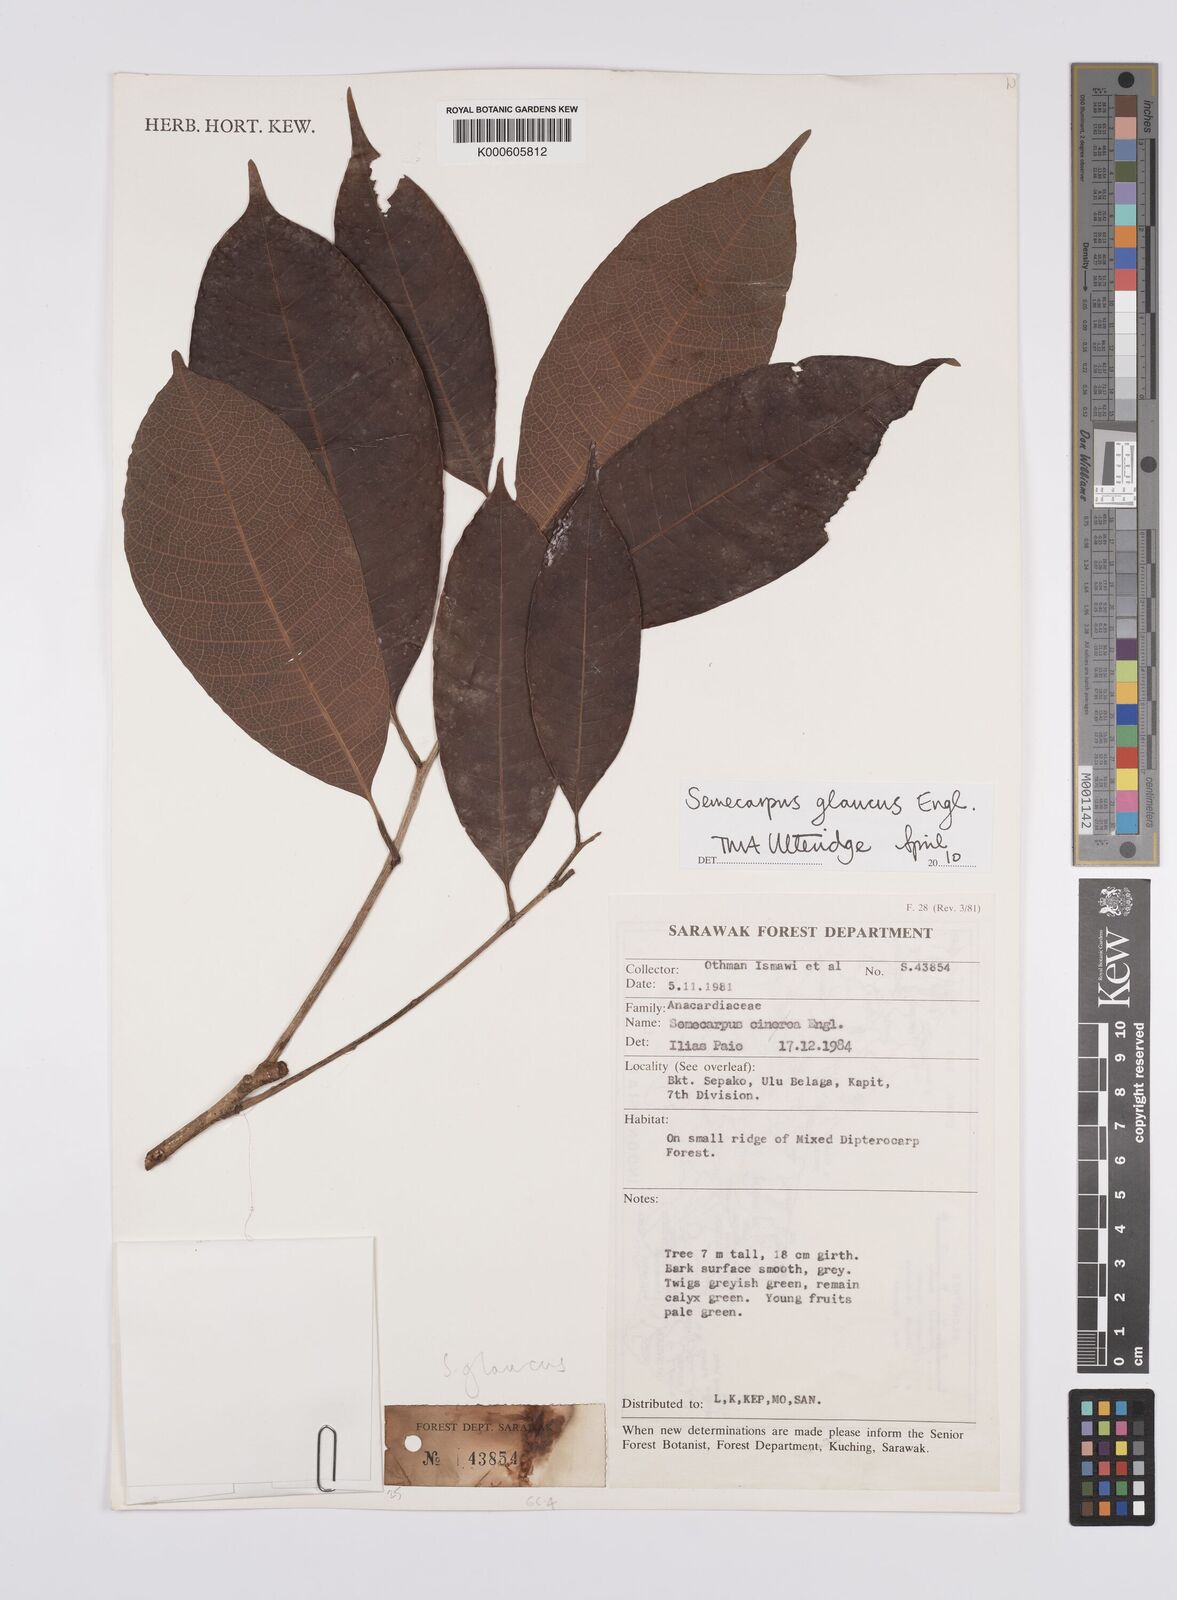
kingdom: Plantae
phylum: Tracheophyta
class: Magnoliopsida
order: Sapindales
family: Anacardiaceae
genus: Semecarpus
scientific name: Semecarpus glaucus
